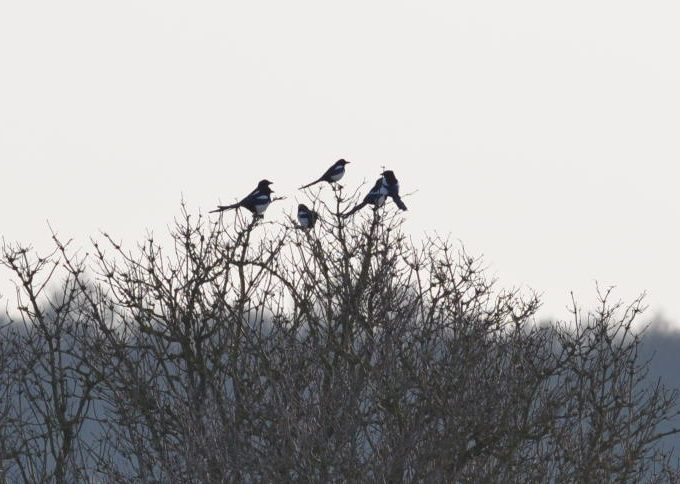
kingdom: Animalia
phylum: Chordata
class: Aves
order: Passeriformes
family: Corvidae
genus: Pica
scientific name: Pica pica
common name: Eurasian magpie
